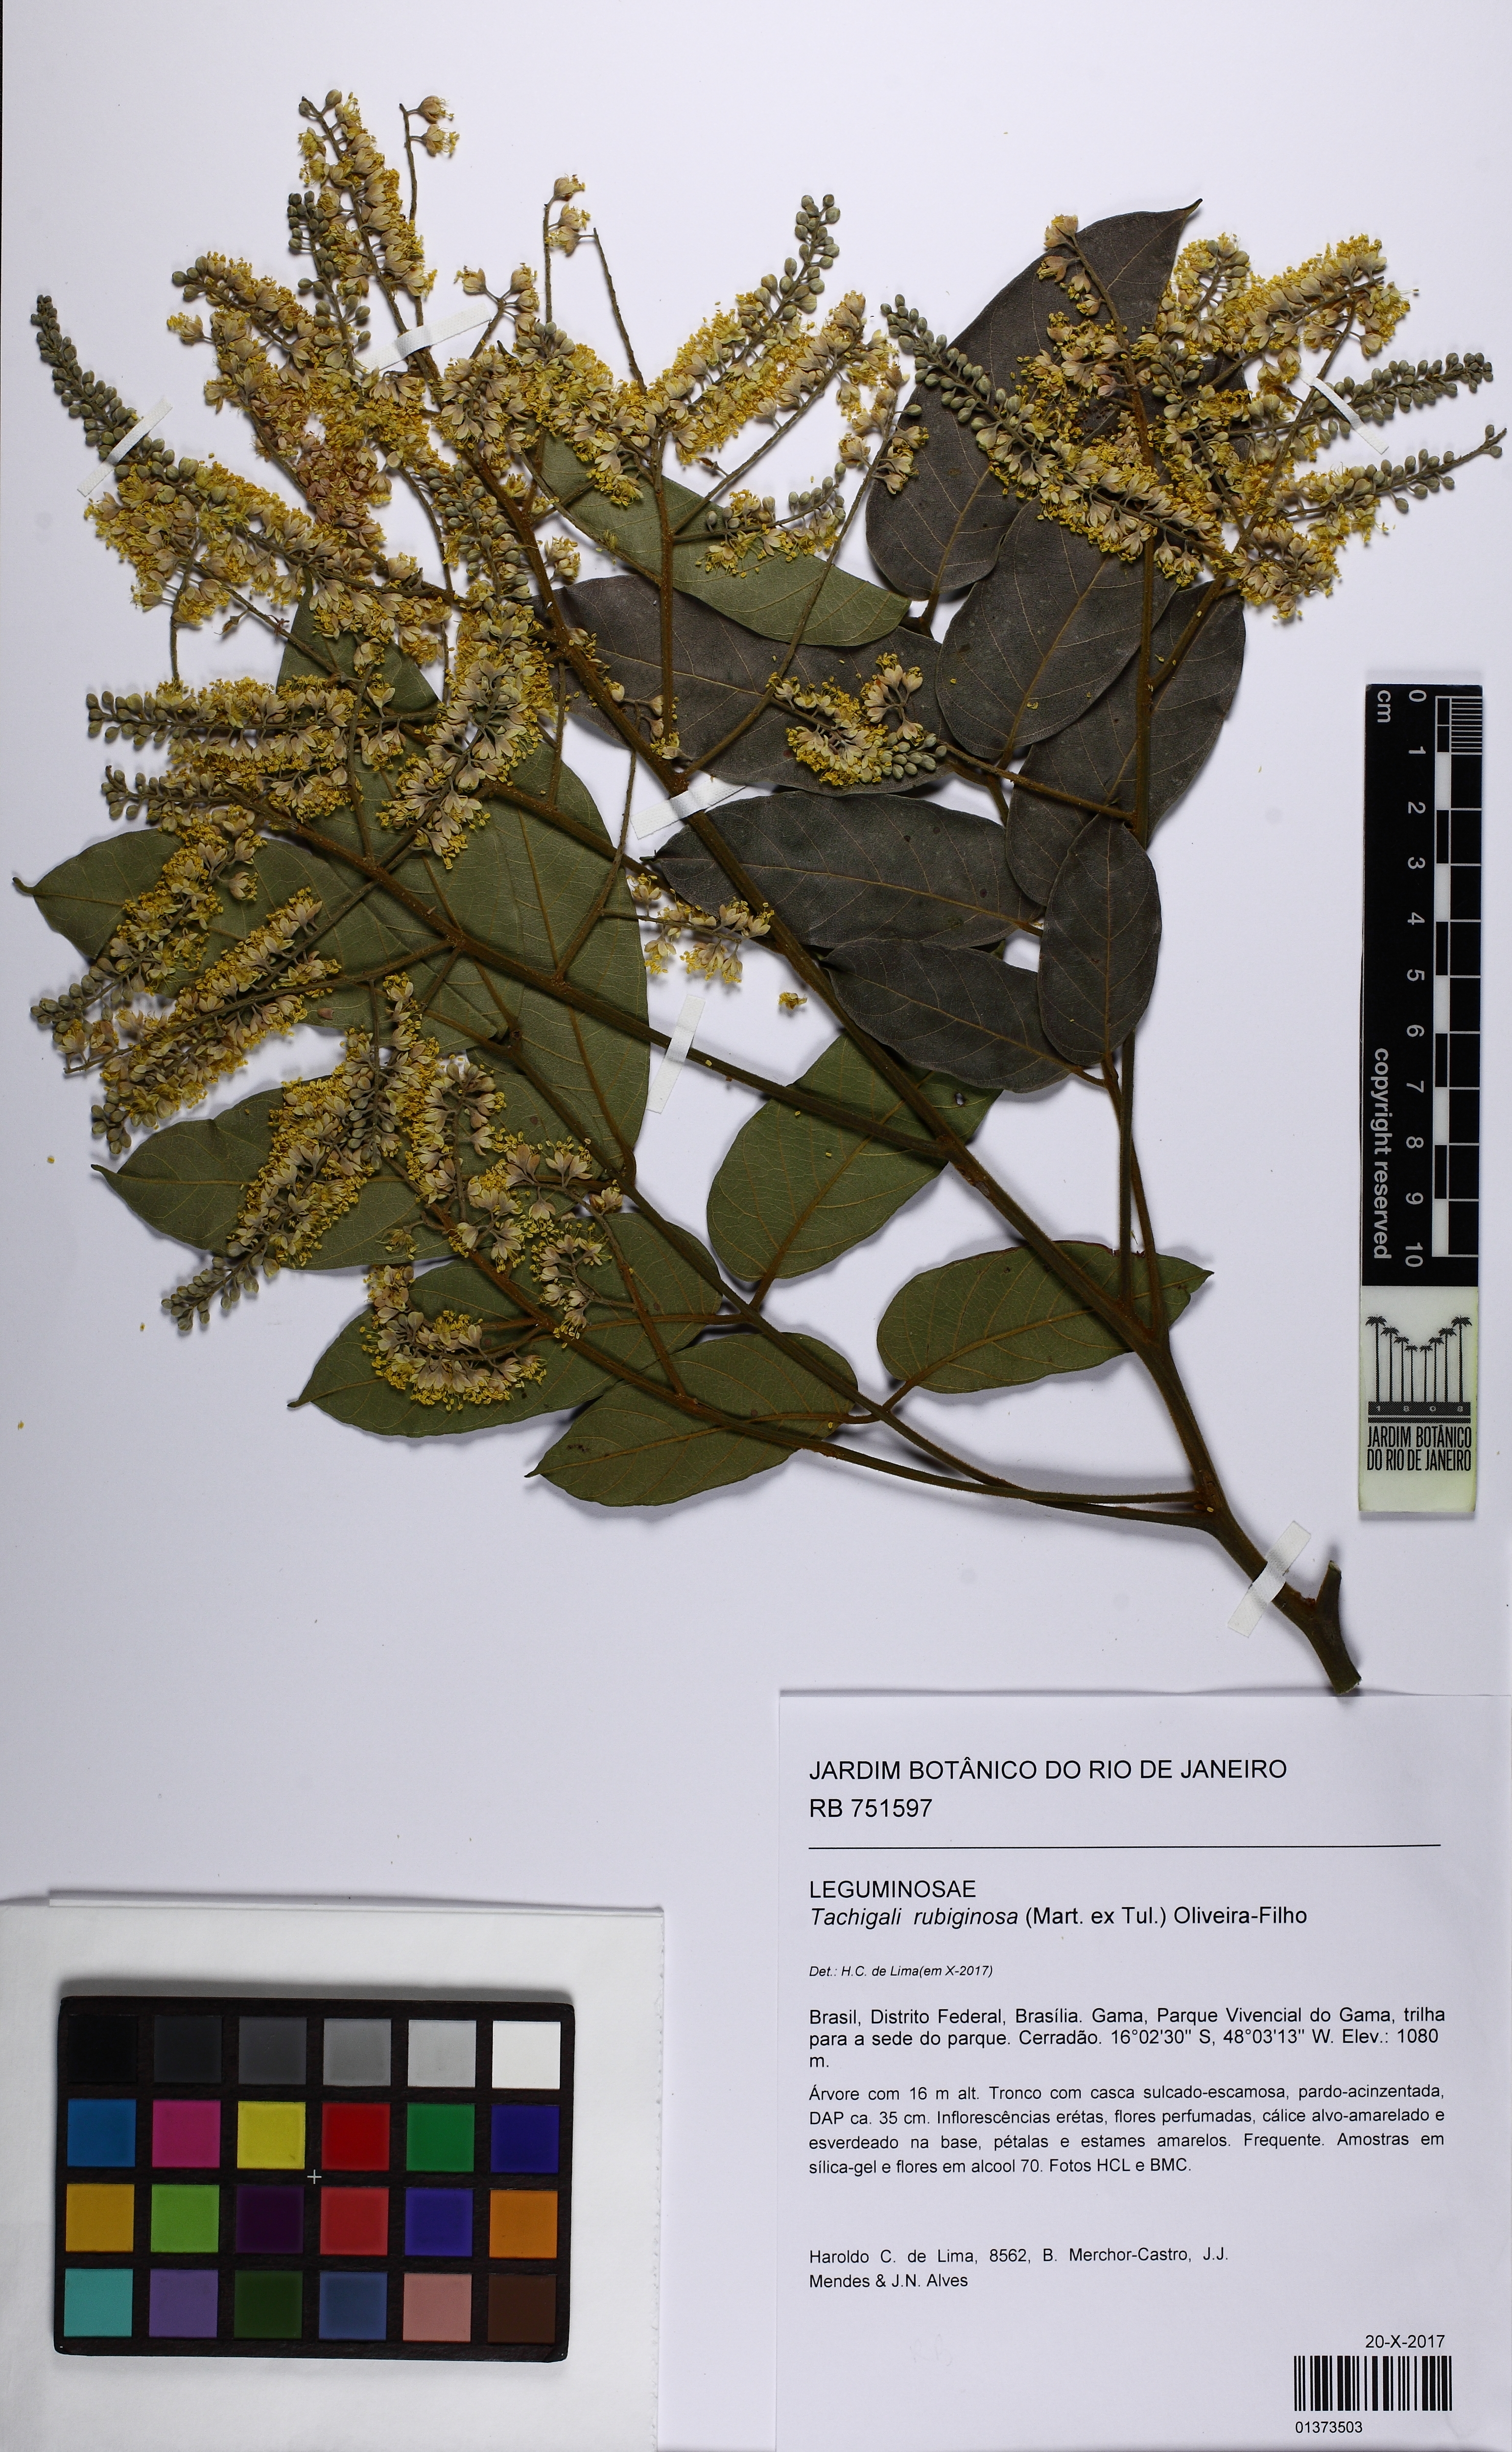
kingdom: Plantae
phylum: Tracheophyta
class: Magnoliopsida
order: Fabales
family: Fabaceae
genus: Tachigali
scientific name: Tachigali rubiginosa
